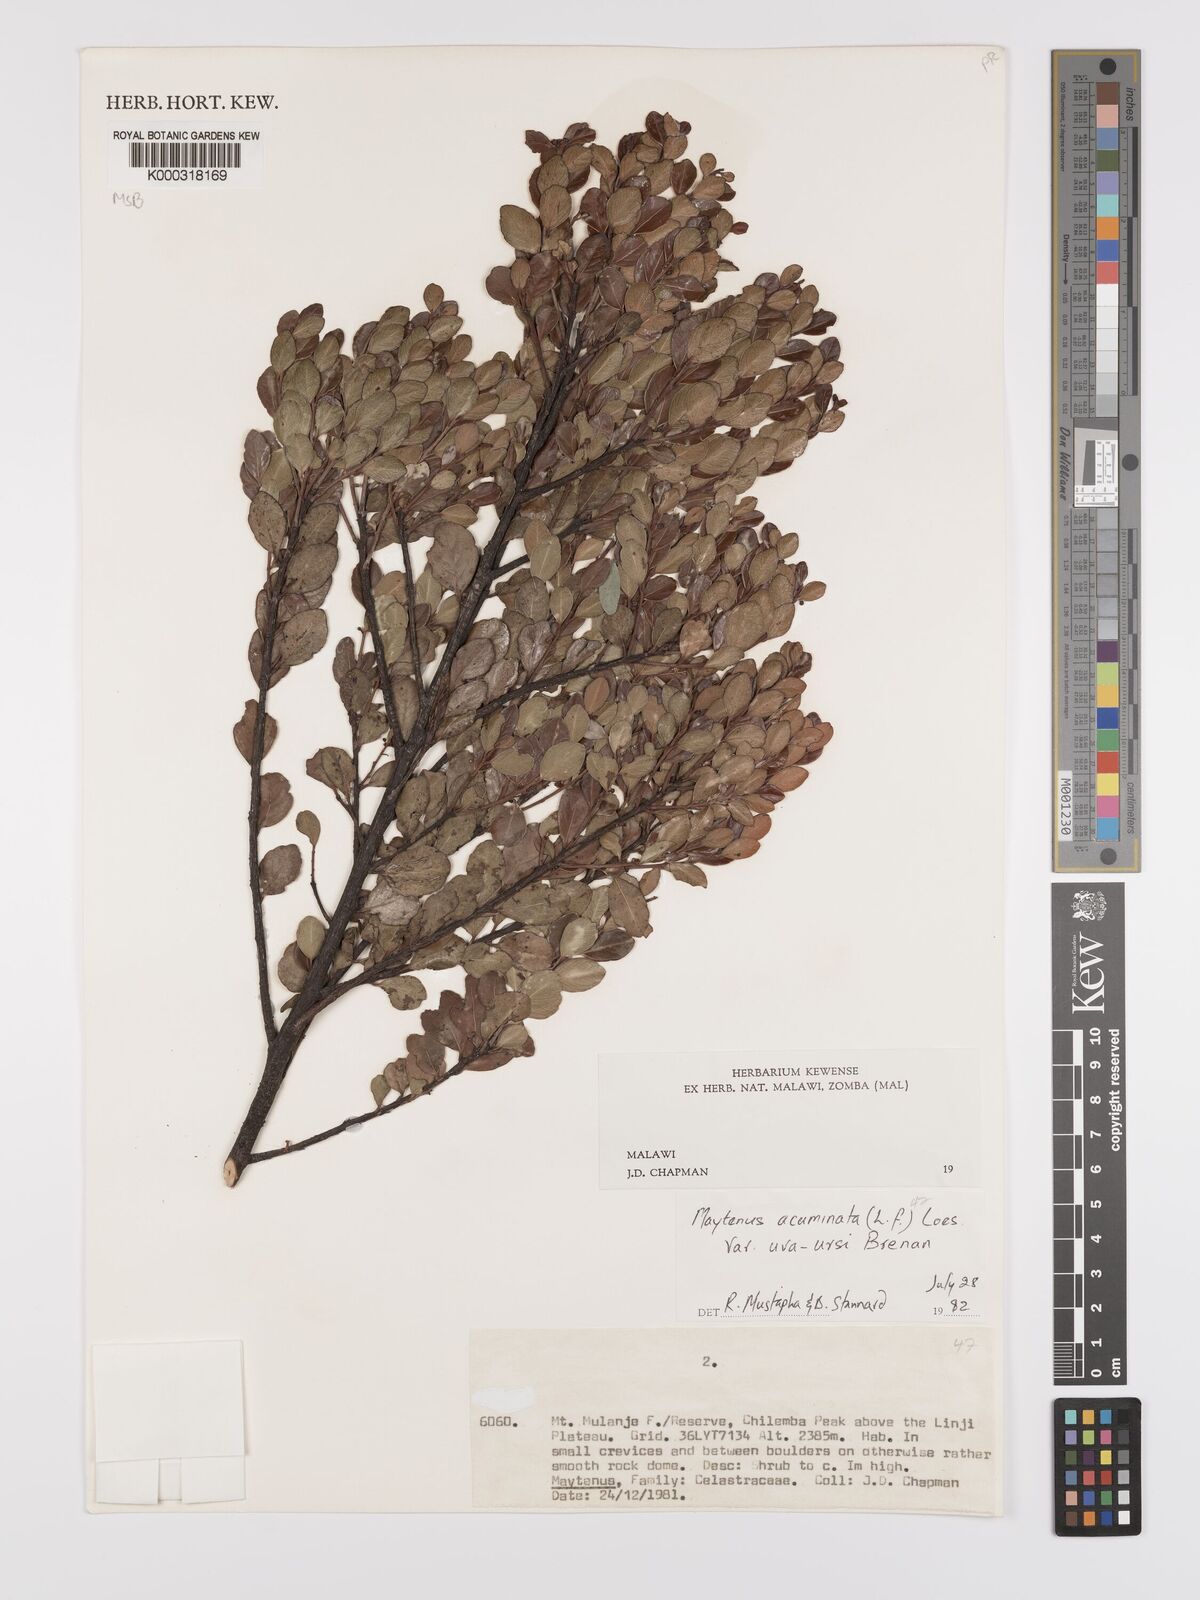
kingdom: Plantae
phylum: Tracheophyta
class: Magnoliopsida
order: Celastrales
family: Celastraceae
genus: Maytenus
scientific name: Maytenus
